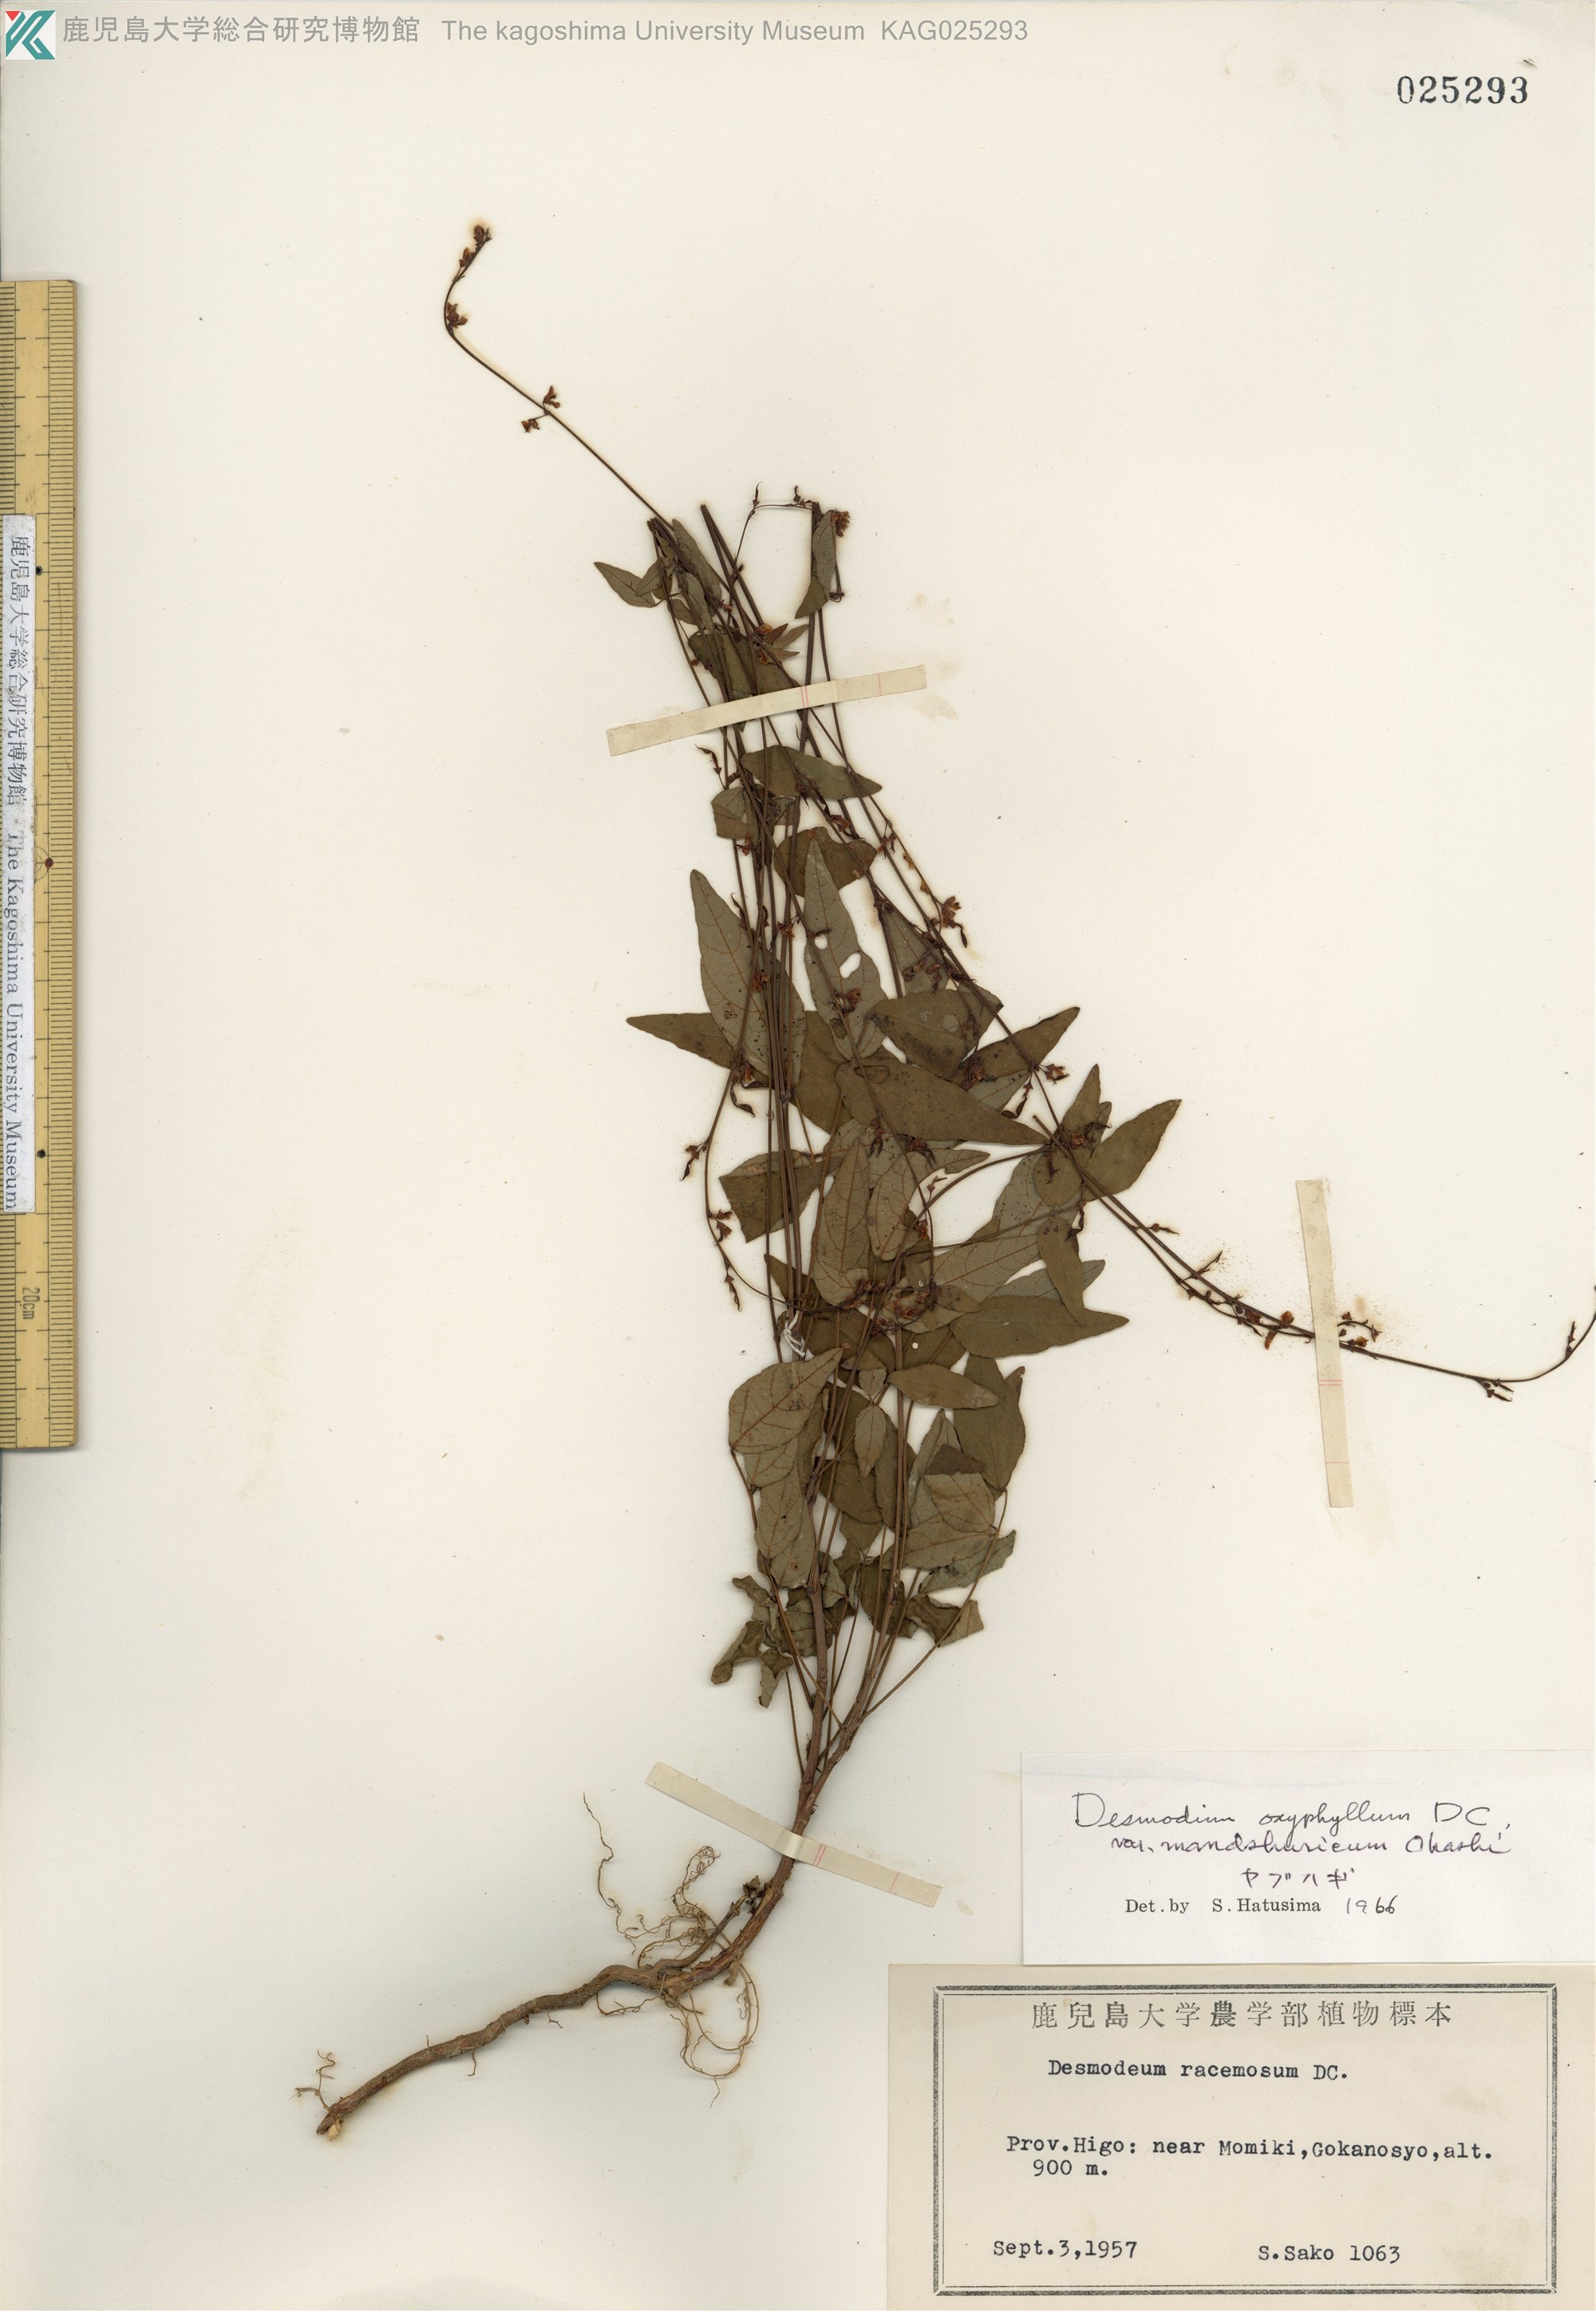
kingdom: Plantae
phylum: Tracheophyta
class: Magnoliopsida
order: Fabales
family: Fabaceae
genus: Hylodesmum
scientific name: Hylodesmum podocarpum
